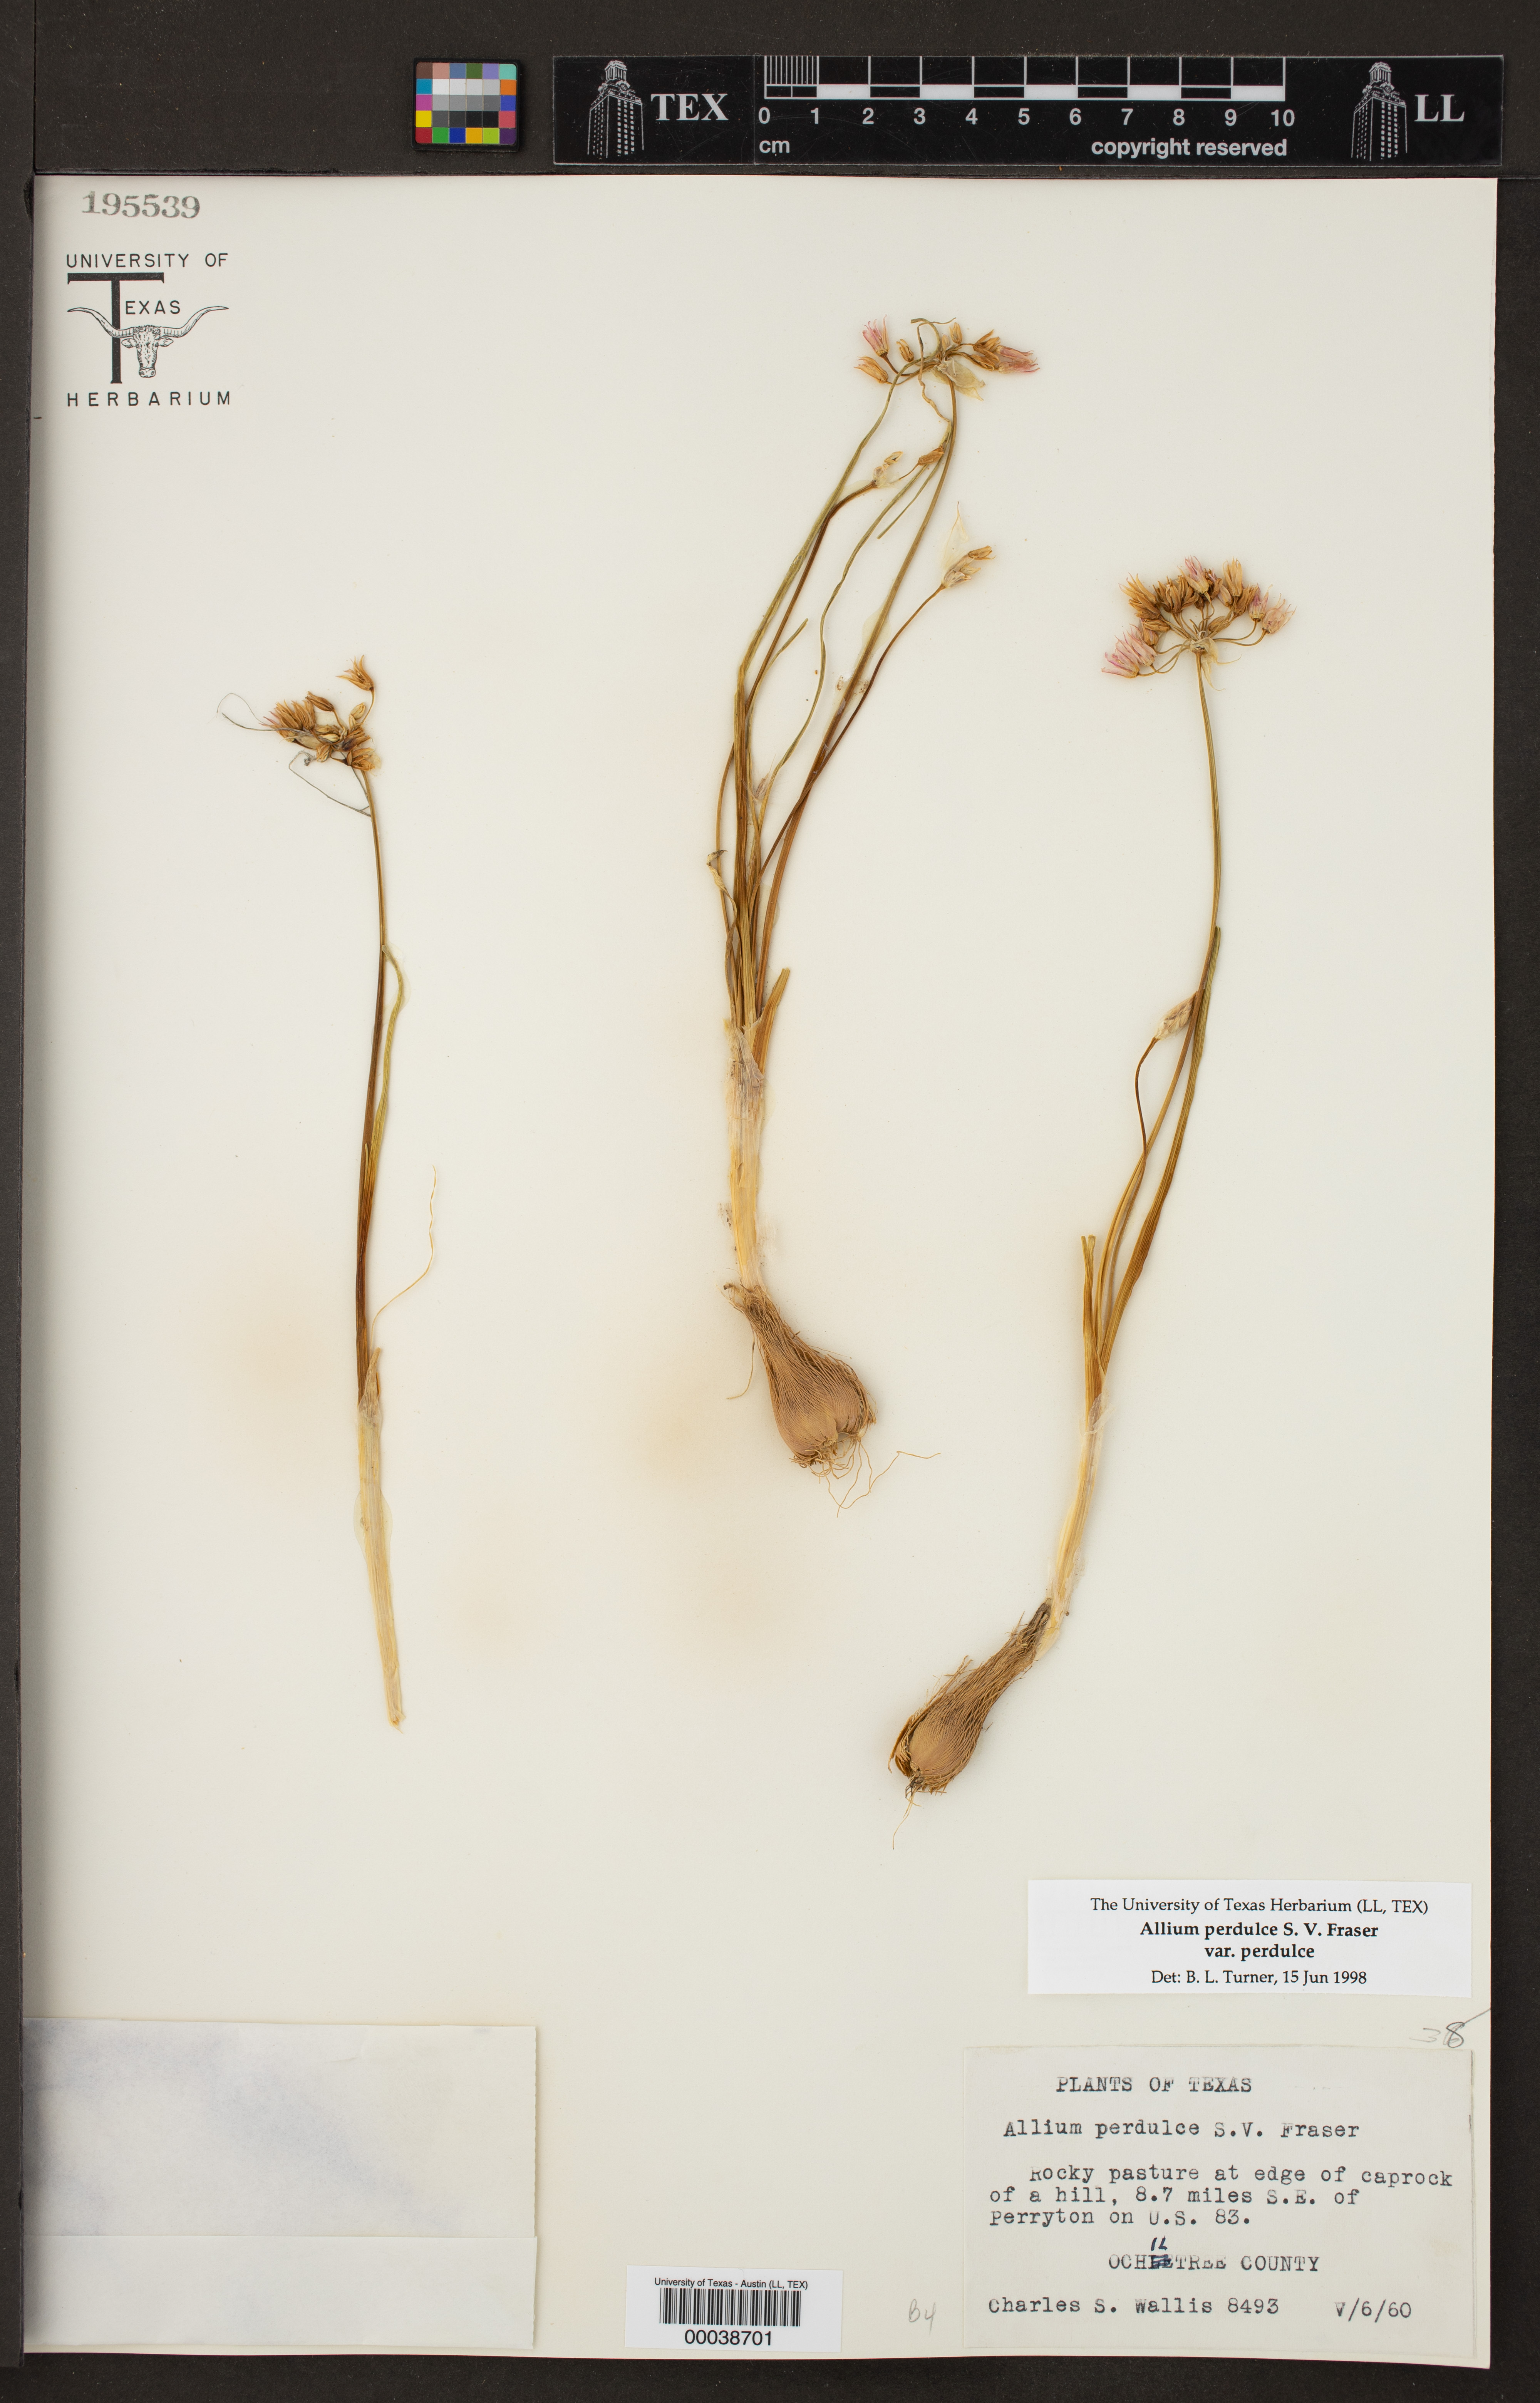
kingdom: Plantae
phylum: Tracheophyta
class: Liliopsida
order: Asparagales
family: Amaryllidaceae
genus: Allium
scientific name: Allium perdulce
